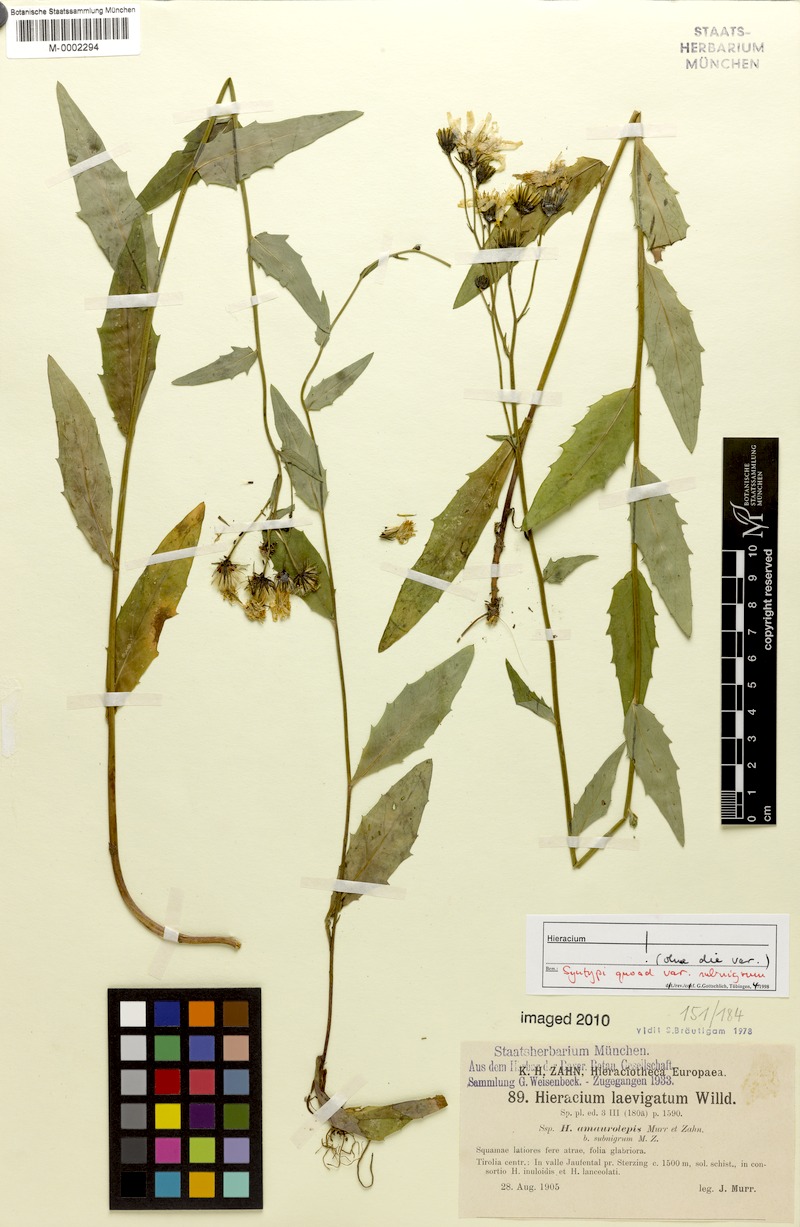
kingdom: Plantae
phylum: Tracheophyta
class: Magnoliopsida
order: Asterales
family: Asteraceae
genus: Hieracium
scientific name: Hieracium laevigatum
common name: Smooth hawkweed
